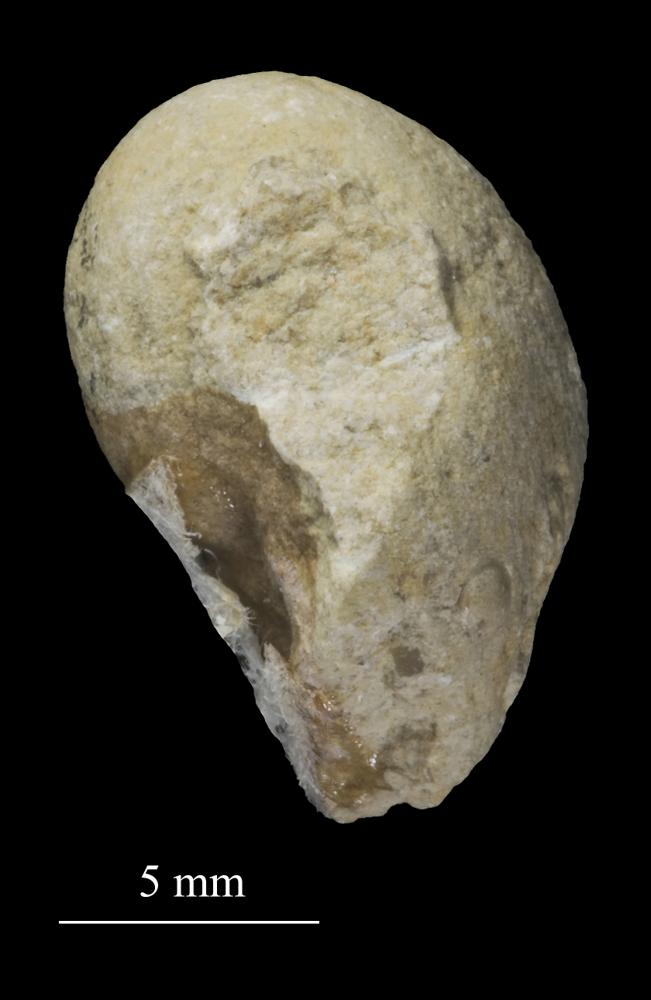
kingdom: Animalia
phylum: Mollusca
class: Gastropoda
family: Bucaniidae
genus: Tetranota
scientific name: Tetranota Bucaniella jugata
